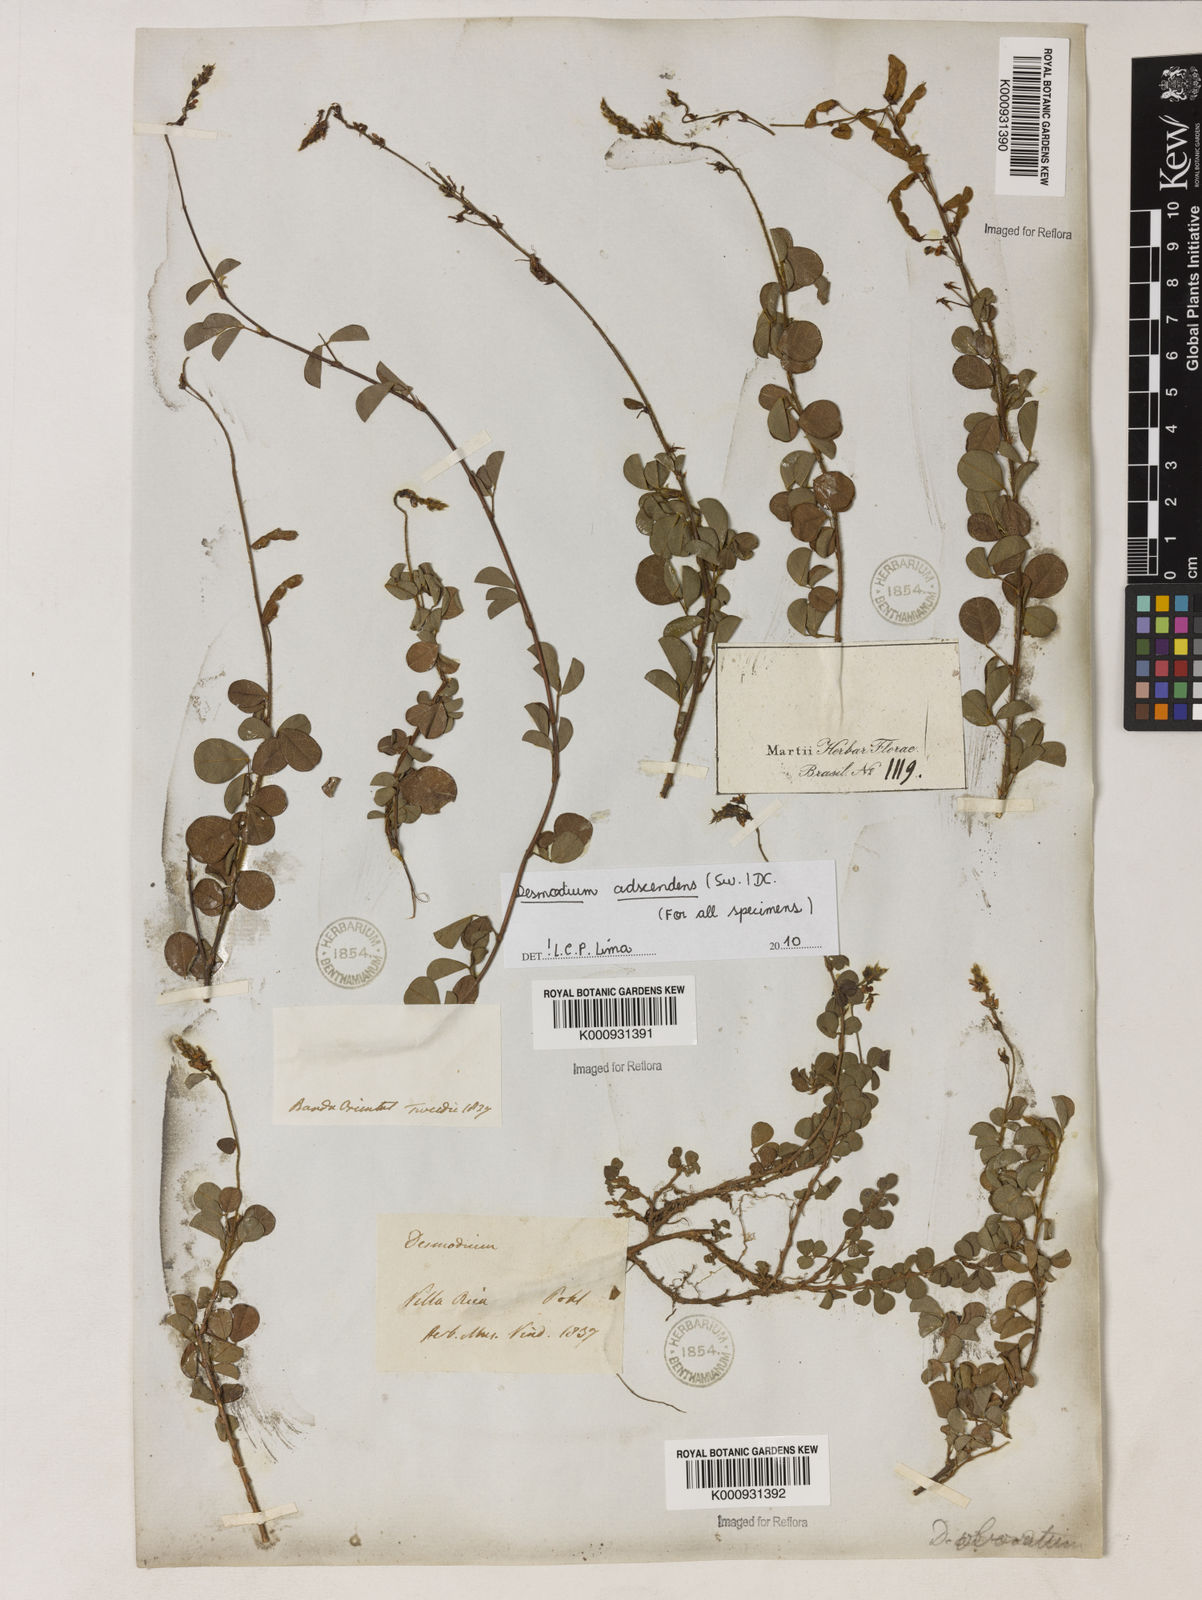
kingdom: Plantae
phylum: Tracheophyta
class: Magnoliopsida
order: Fabales
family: Fabaceae
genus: Grona
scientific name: Grona adscendens
